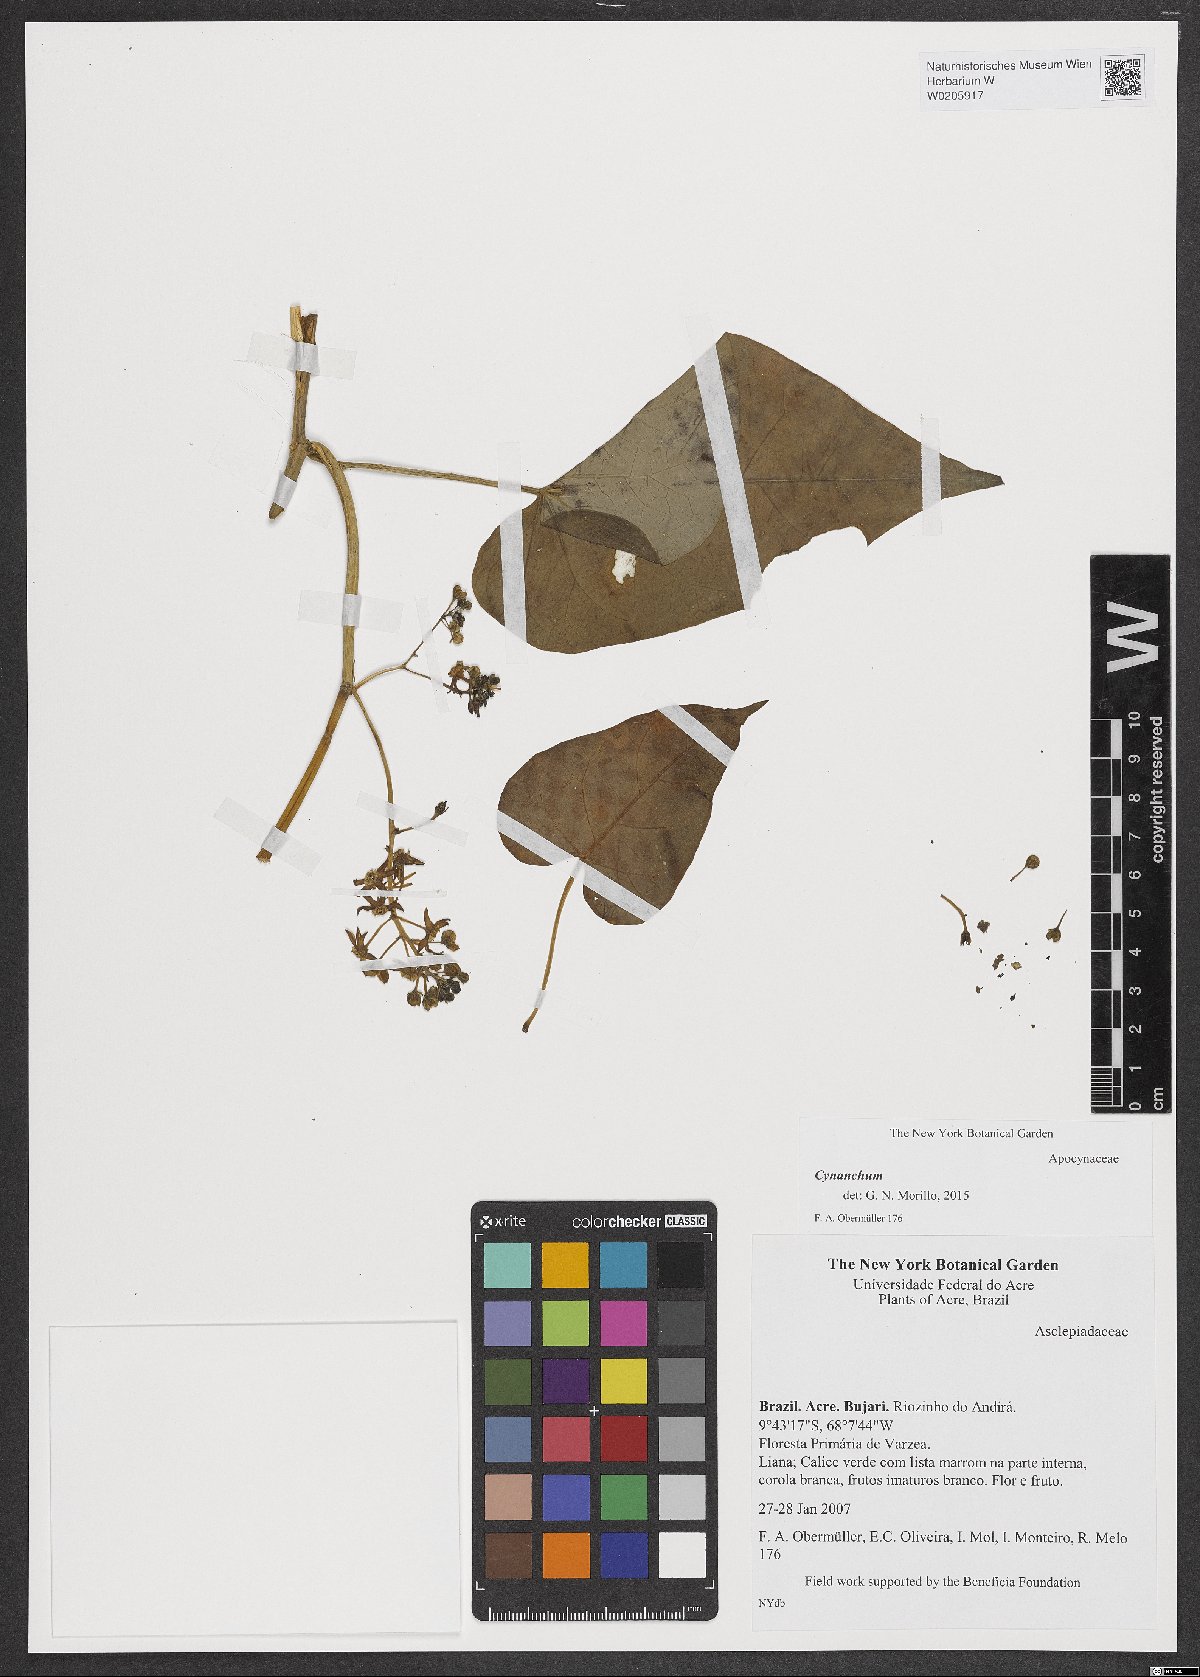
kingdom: Plantae
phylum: Tracheophyta
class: Magnoliopsida
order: Gentianales
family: Apocynaceae
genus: Cynanchum
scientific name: Cynanchum
